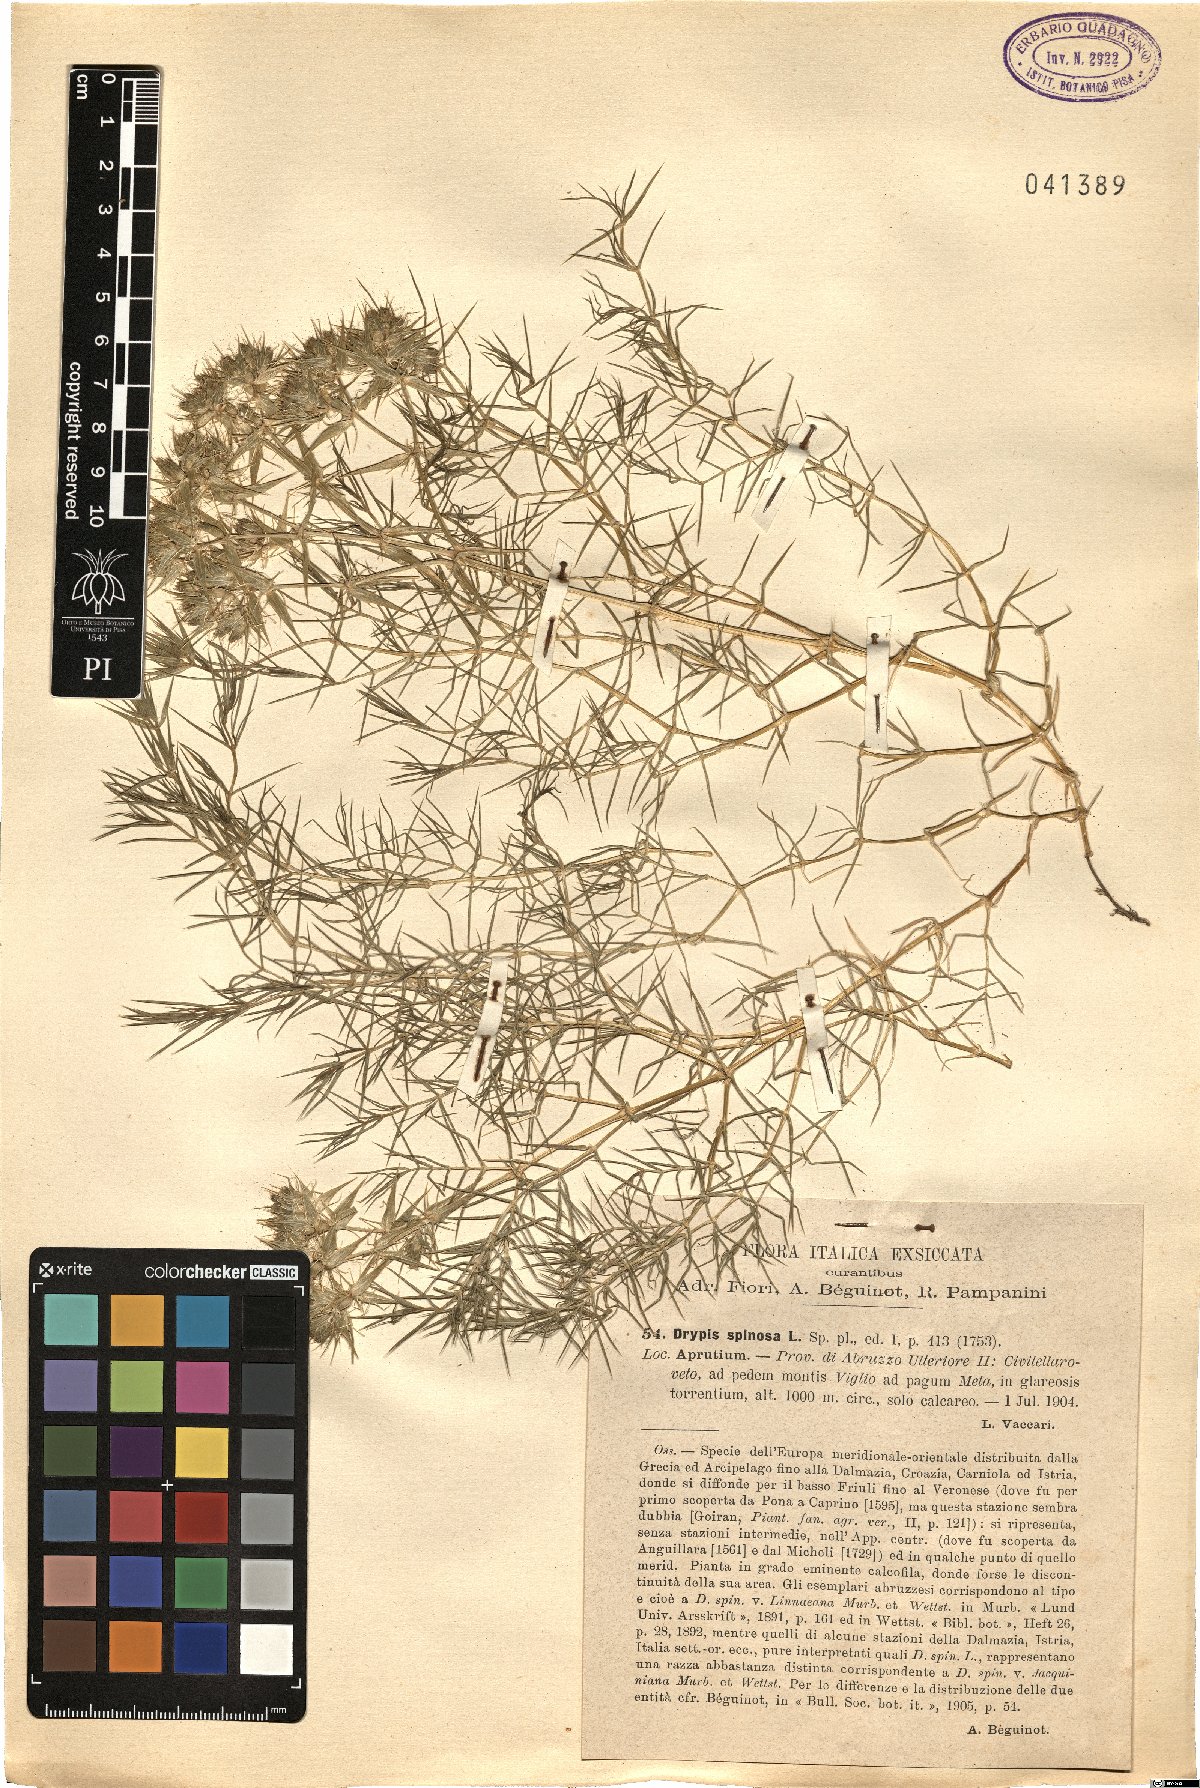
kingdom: Plantae
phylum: Tracheophyta
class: Magnoliopsida
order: Caryophyllales
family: Caryophyllaceae
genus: Drypis
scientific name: Drypis spinosa
